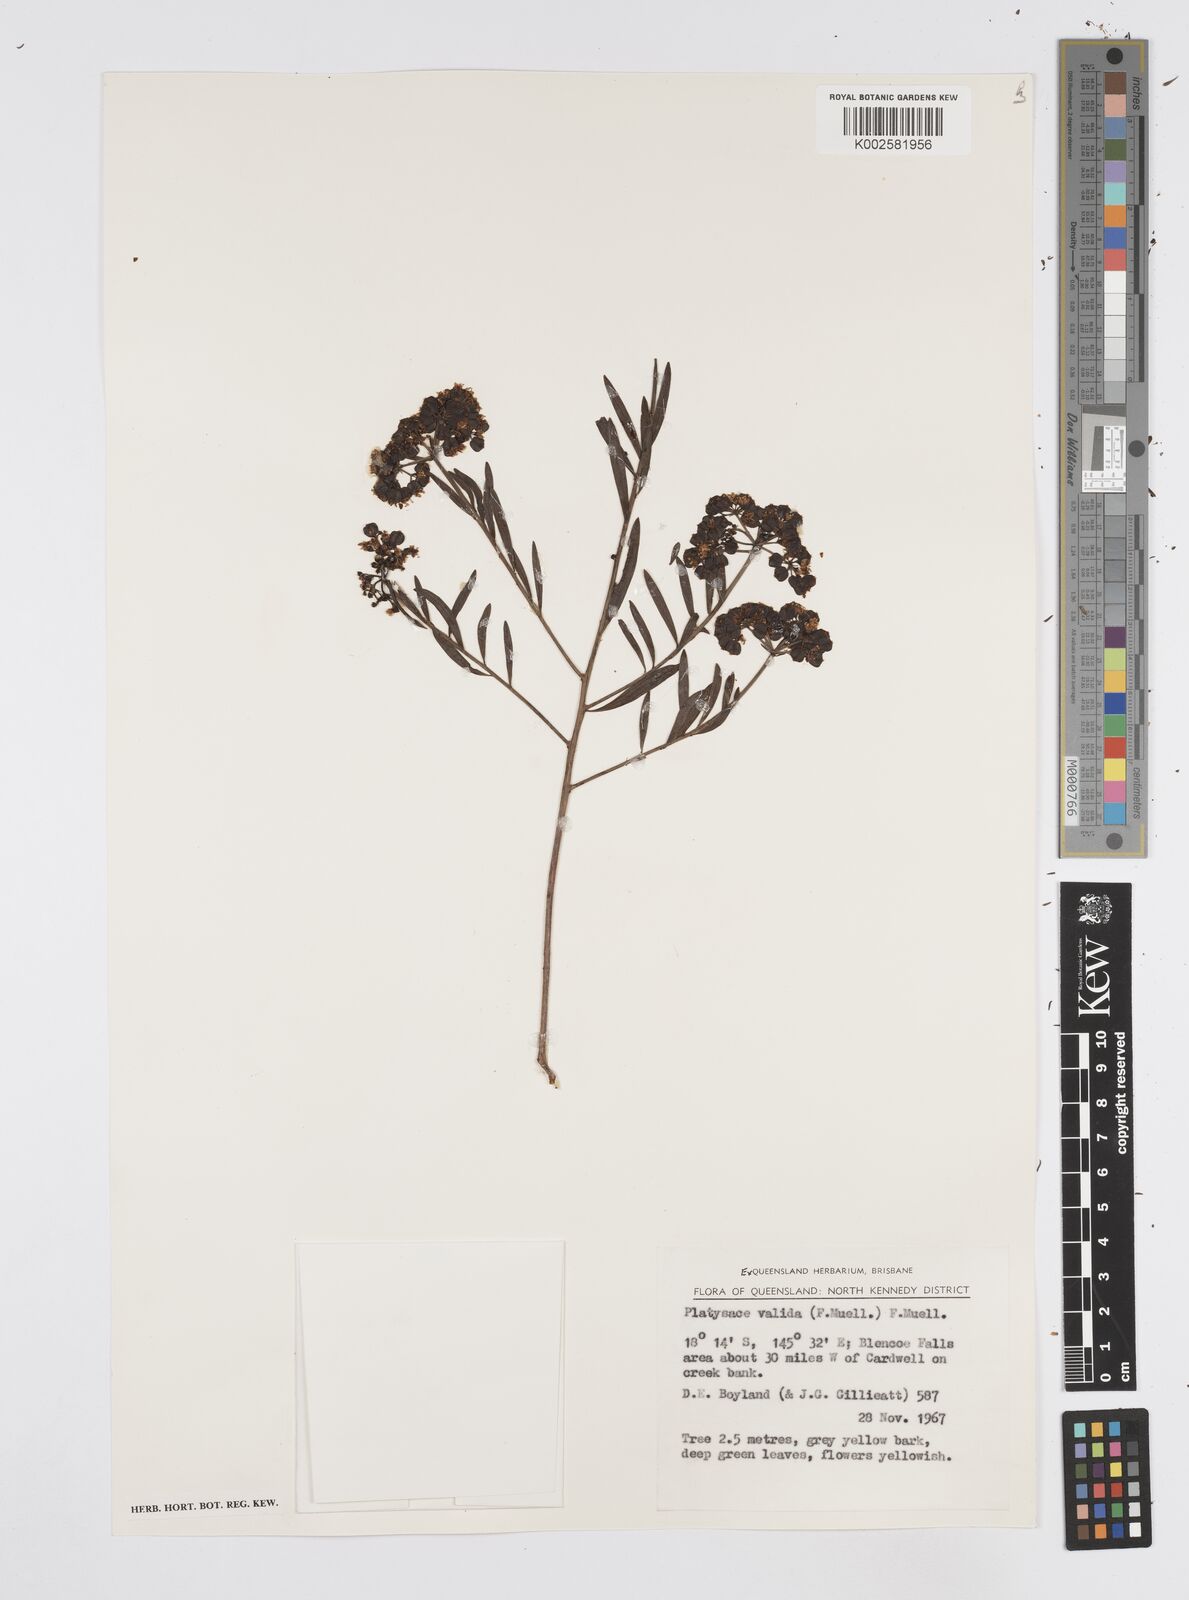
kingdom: Plantae
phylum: Tracheophyta
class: Magnoliopsida
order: Apiales
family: Apiaceae
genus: Platysace
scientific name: Platysace valida
